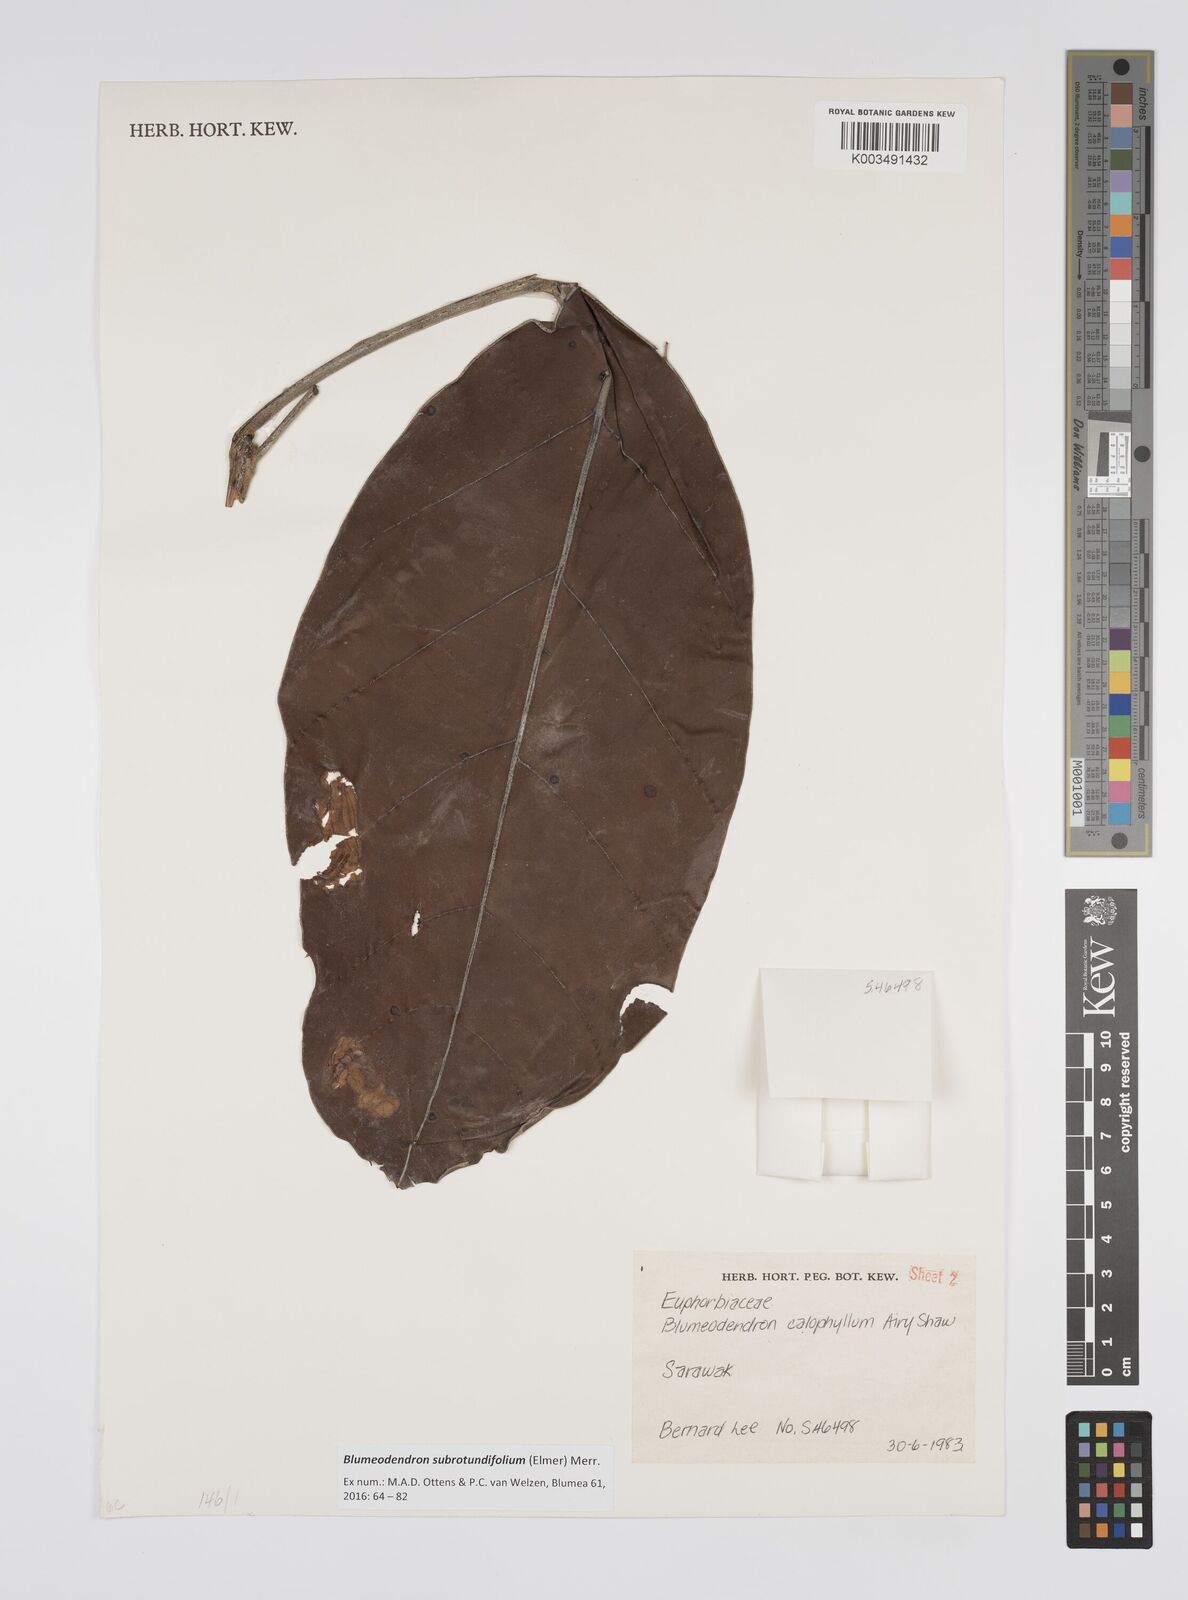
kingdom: Plantae
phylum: Tracheophyta
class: Magnoliopsida
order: Malpighiales
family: Euphorbiaceae
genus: Blumeodendron
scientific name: Blumeodendron subrotundifolium
